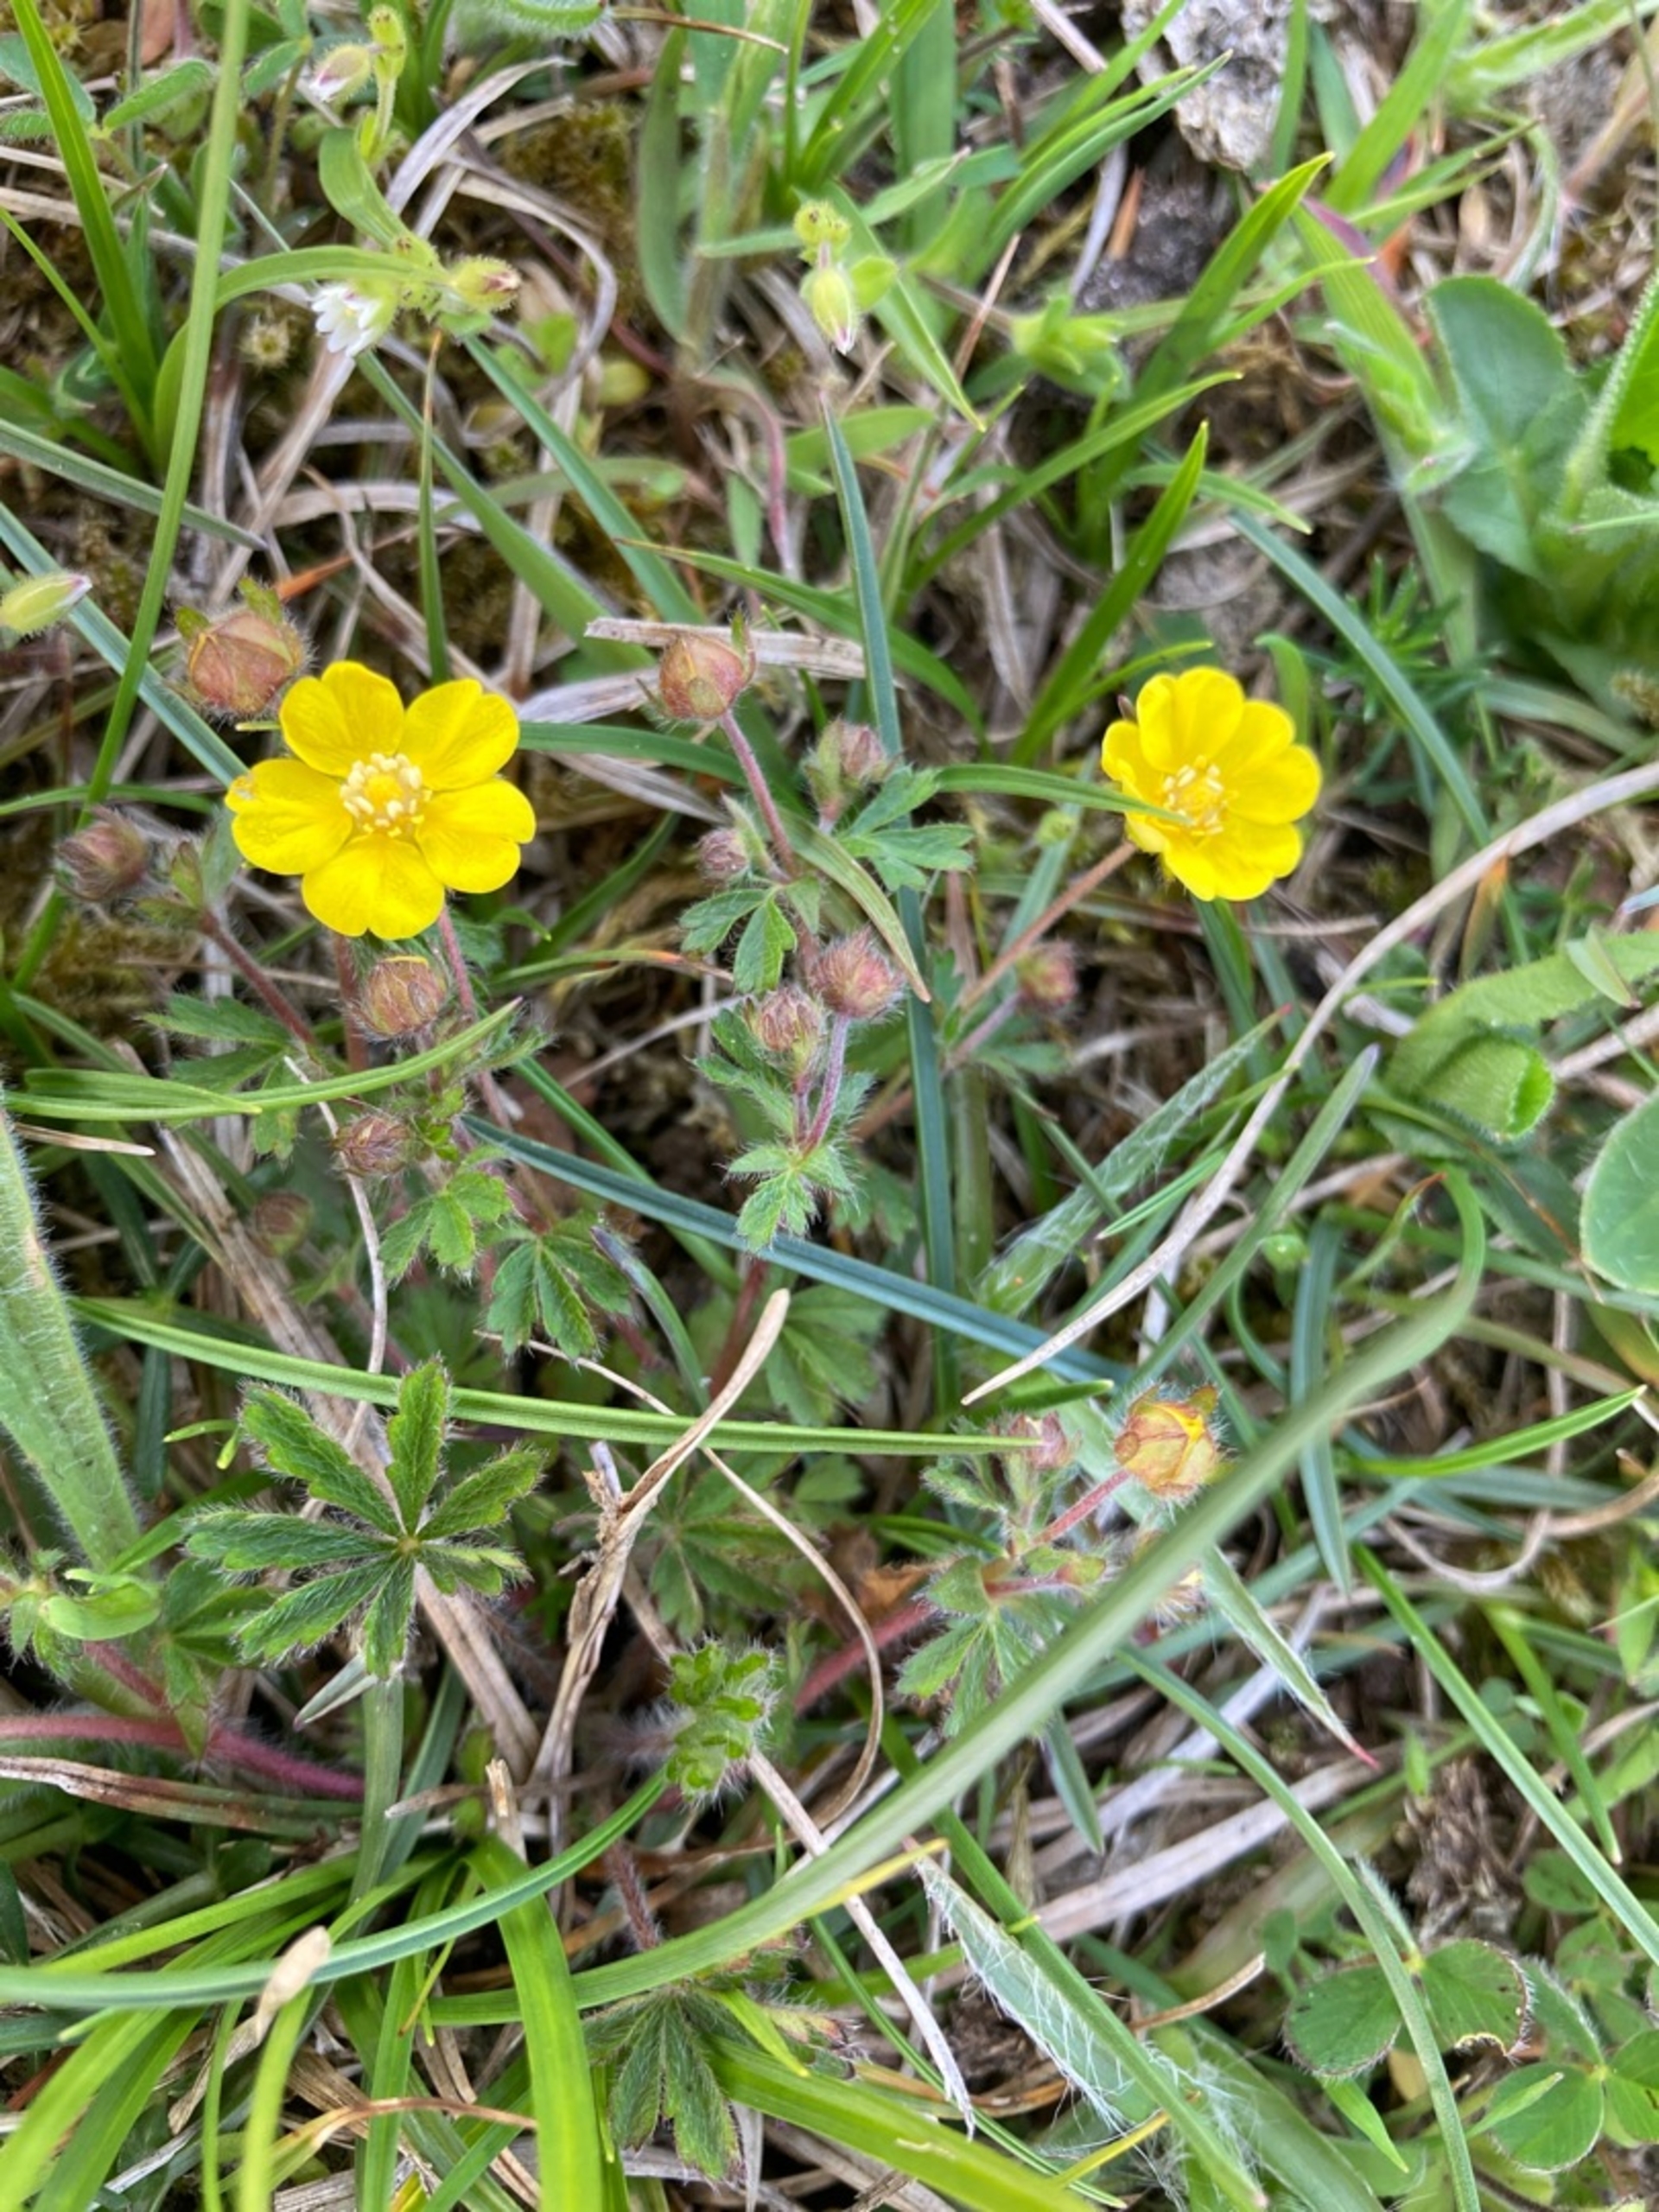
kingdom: Plantae
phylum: Tracheophyta
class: Magnoliopsida
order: Rosales
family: Rosaceae
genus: Potentilla
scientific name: Potentilla heptaphylla
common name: Mat potentil
